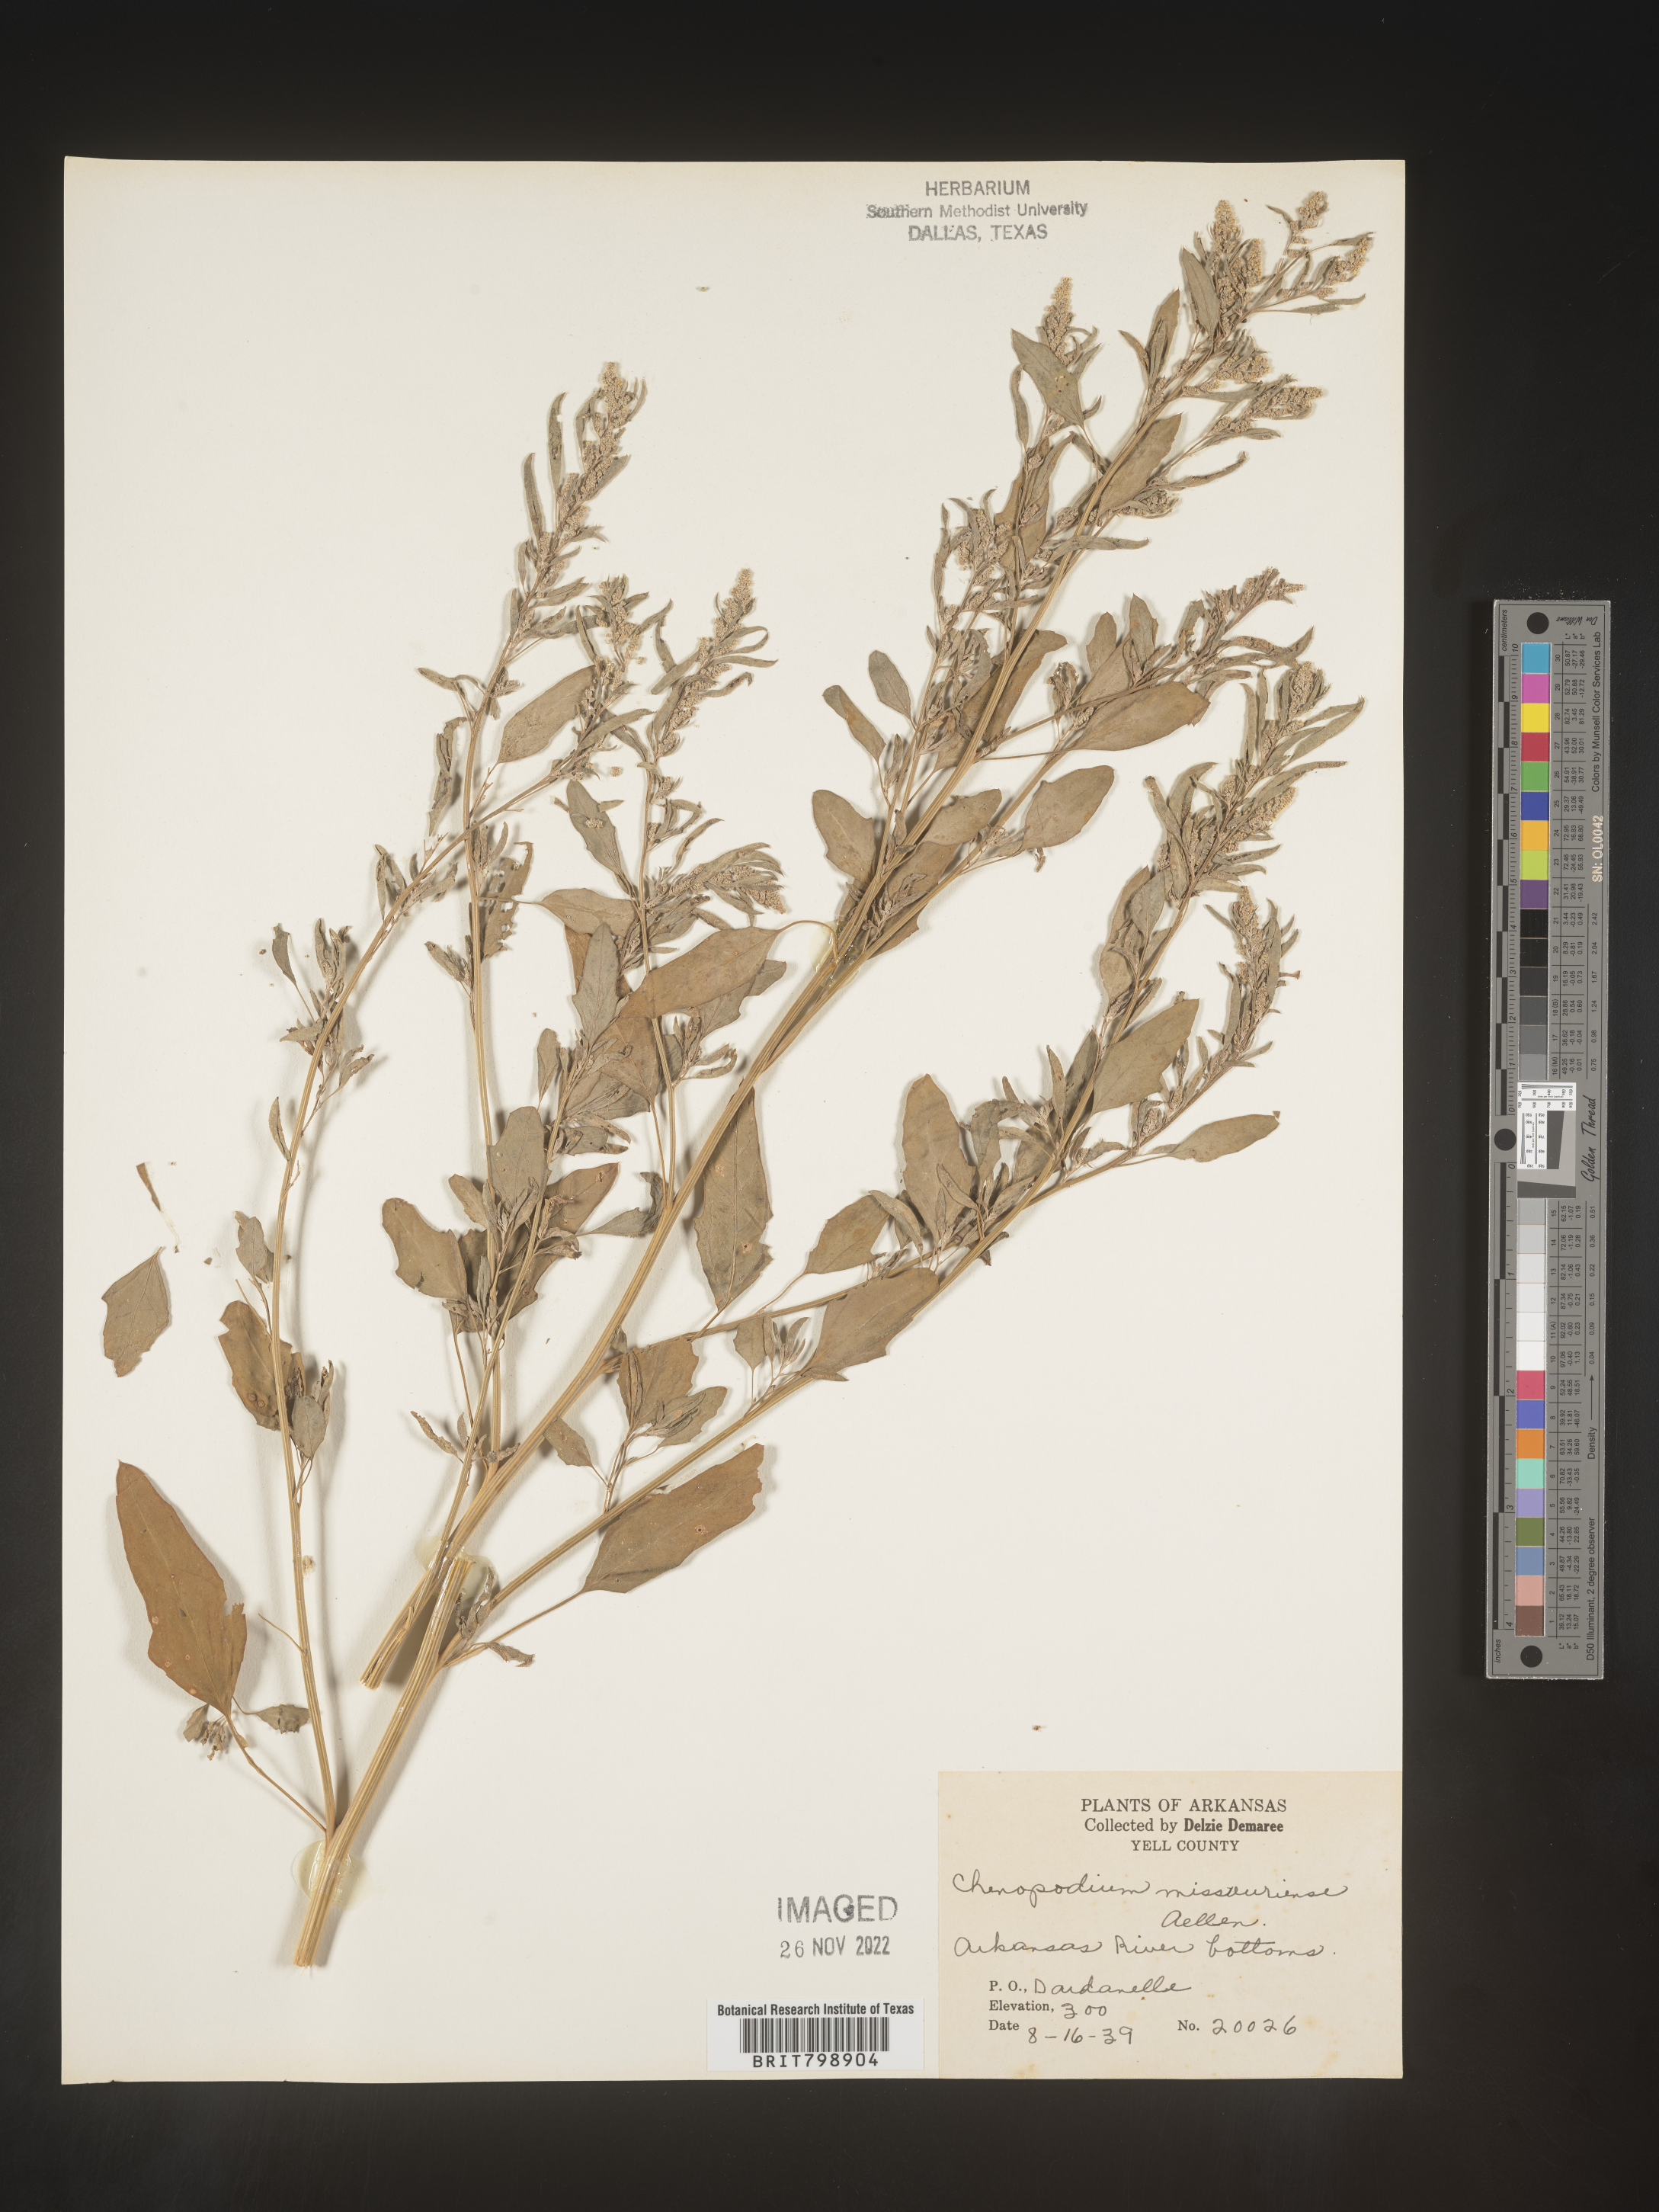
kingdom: Plantae
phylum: Tracheophyta
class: Magnoliopsida
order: Caryophyllales
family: Amaranthaceae
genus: Chenopodium
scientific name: Chenopodium album
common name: Fat-hen
